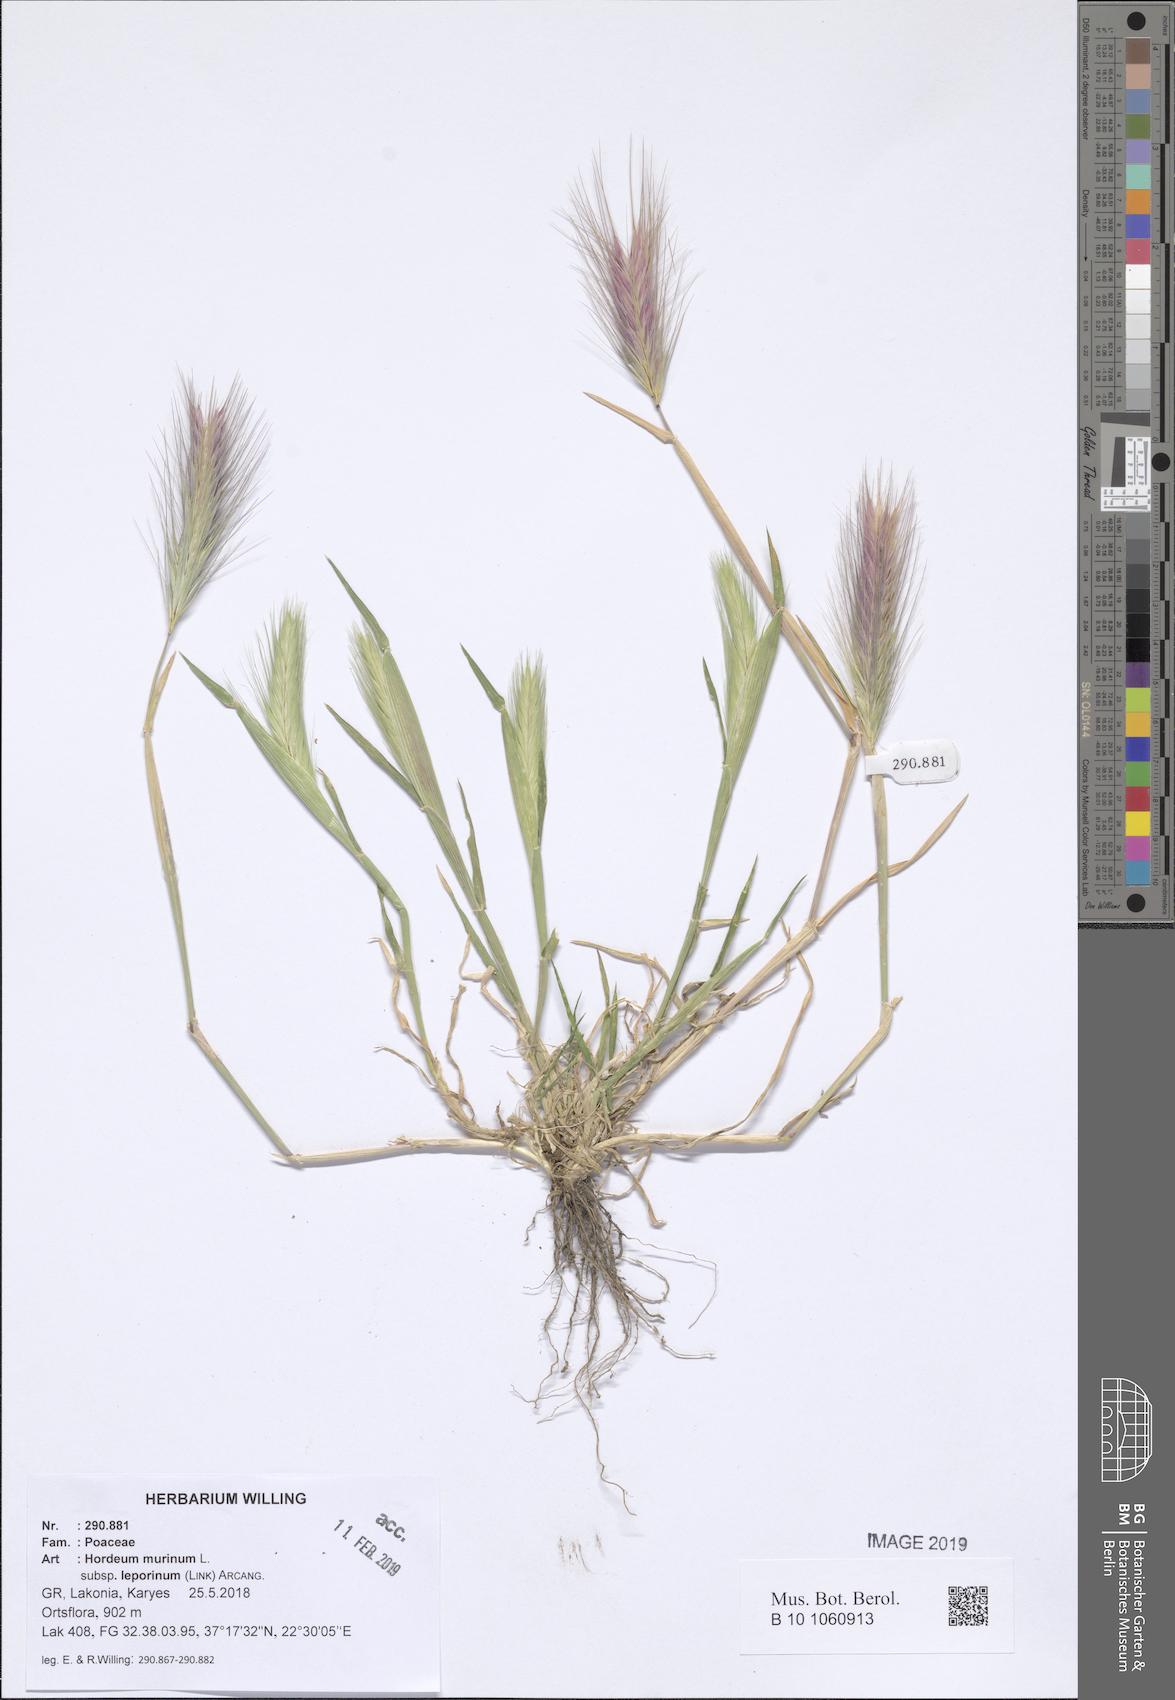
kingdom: Plantae
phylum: Tracheophyta
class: Liliopsida
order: Poales
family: Poaceae
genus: Hordeum
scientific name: Hordeum murinum
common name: Wall barley
